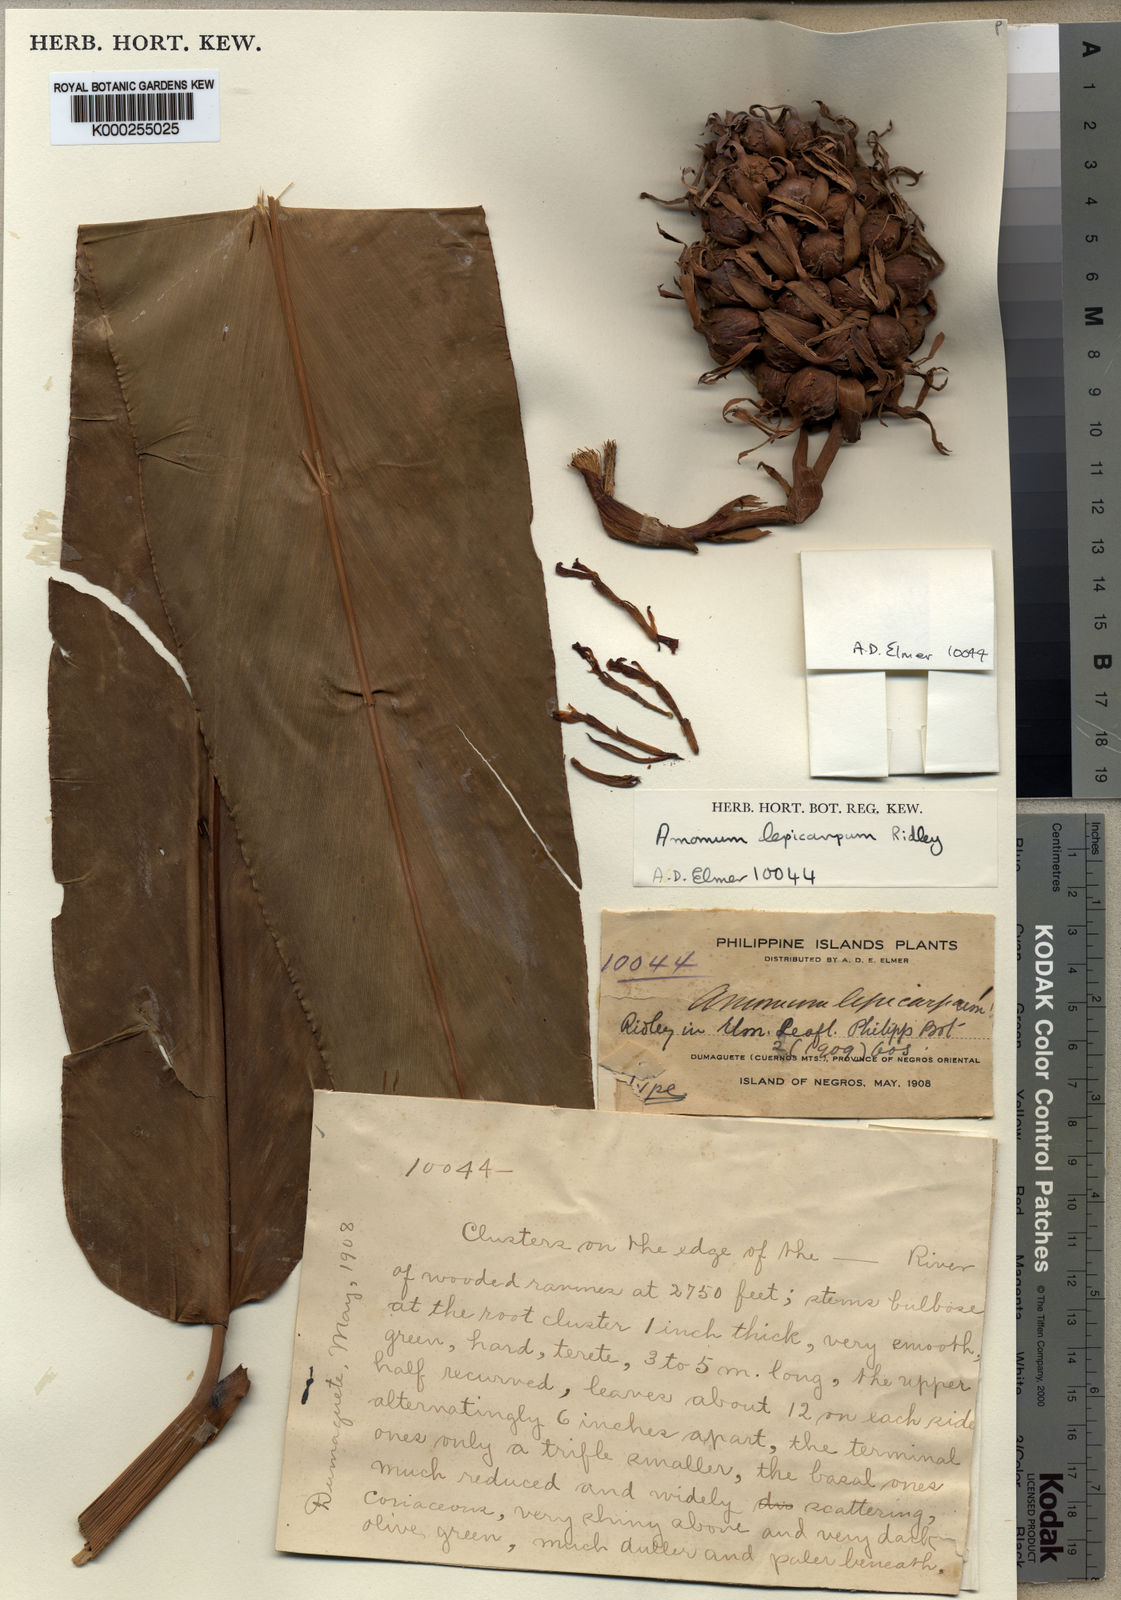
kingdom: Plantae
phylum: Tracheophyta
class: Liliopsida
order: Zingiberales
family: Zingiberaceae
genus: Etlingera
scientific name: Etlingera alba
